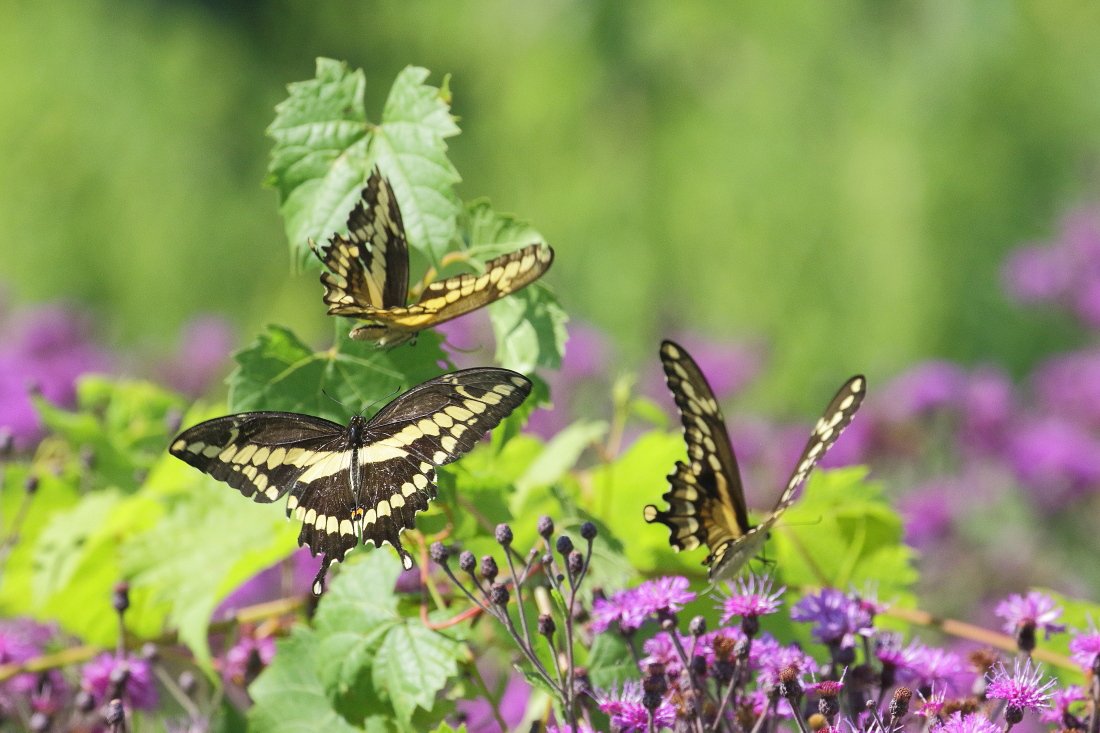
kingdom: Animalia
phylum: Arthropoda
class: Insecta
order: Lepidoptera
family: Papilionidae
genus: Papilio
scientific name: Papilio cresphontes
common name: Eastern Giant Swallowtail
